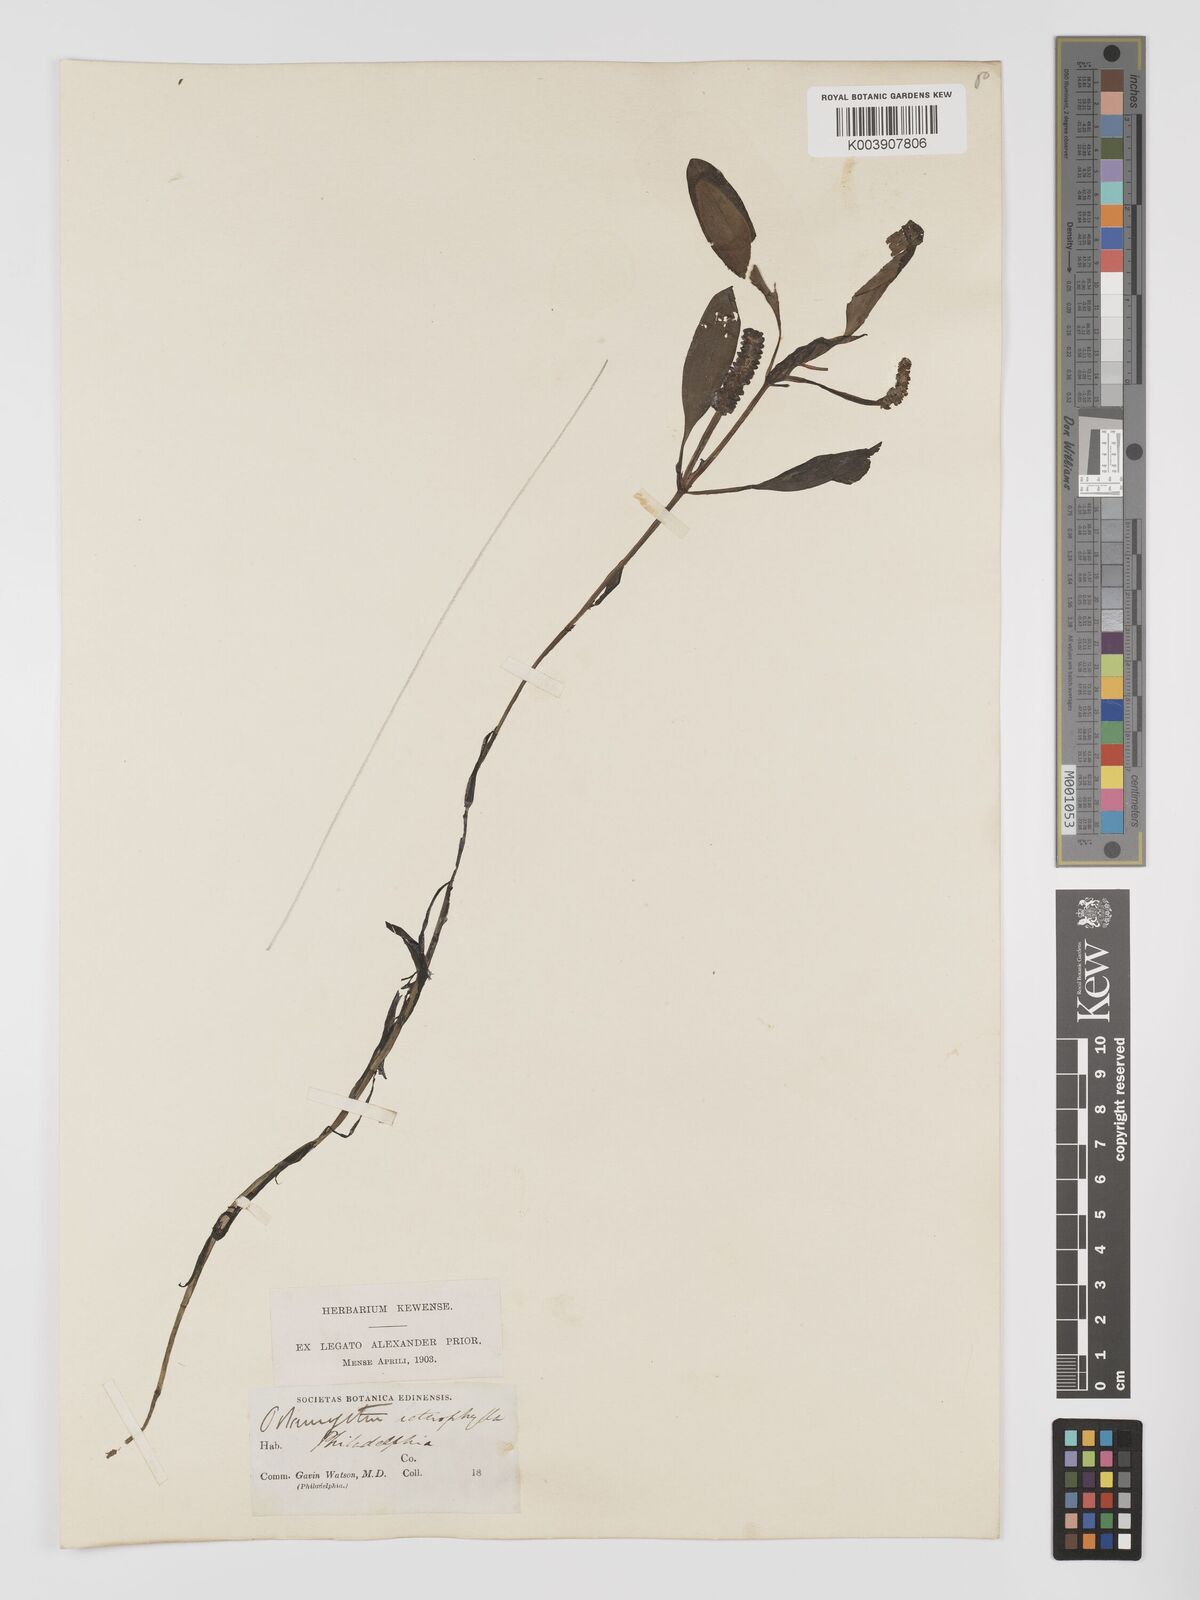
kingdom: Plantae
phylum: Tracheophyta
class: Liliopsida
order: Alismatales
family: Potamogetonaceae
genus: Potamogeton
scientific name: Potamogeton gramineus
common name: Various-leaved pondweed
